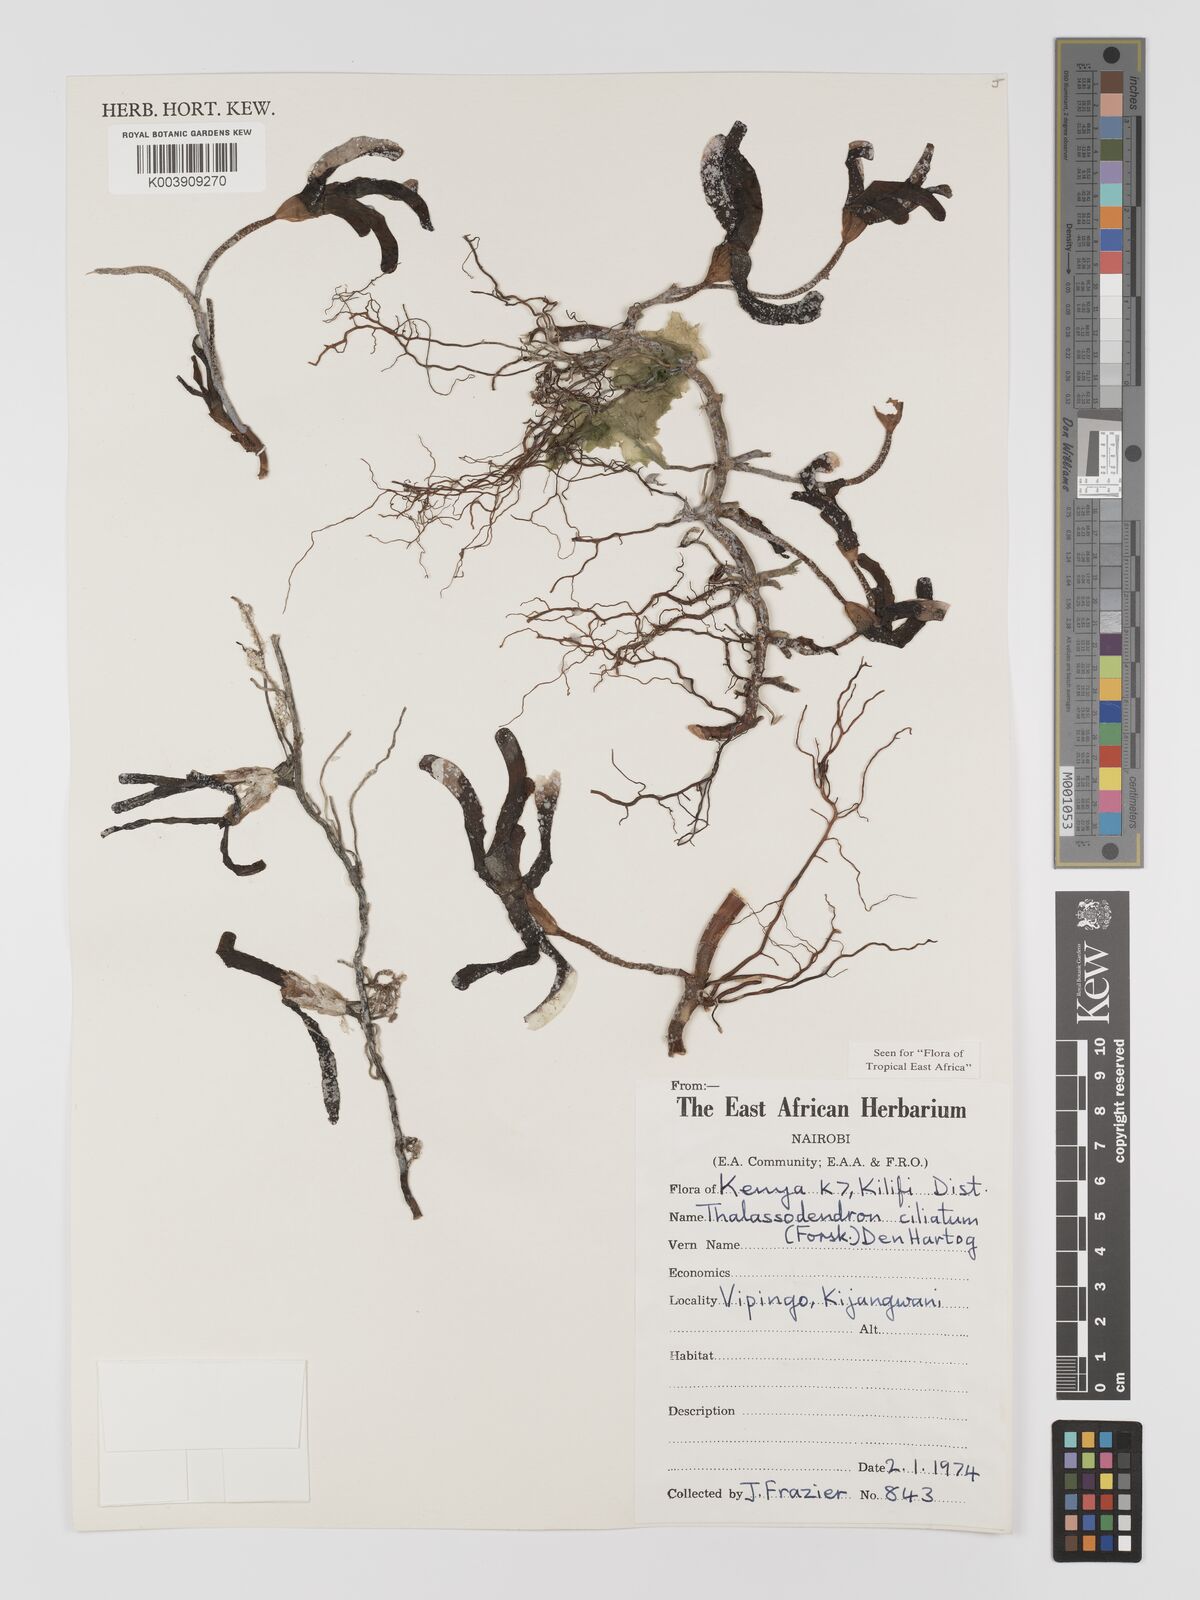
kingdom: Plantae
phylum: Tracheophyta
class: Liliopsida
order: Alismatales
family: Cymodoceaceae
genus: Thalassodendron
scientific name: Thalassodendron ciliatum
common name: Species code: tc
